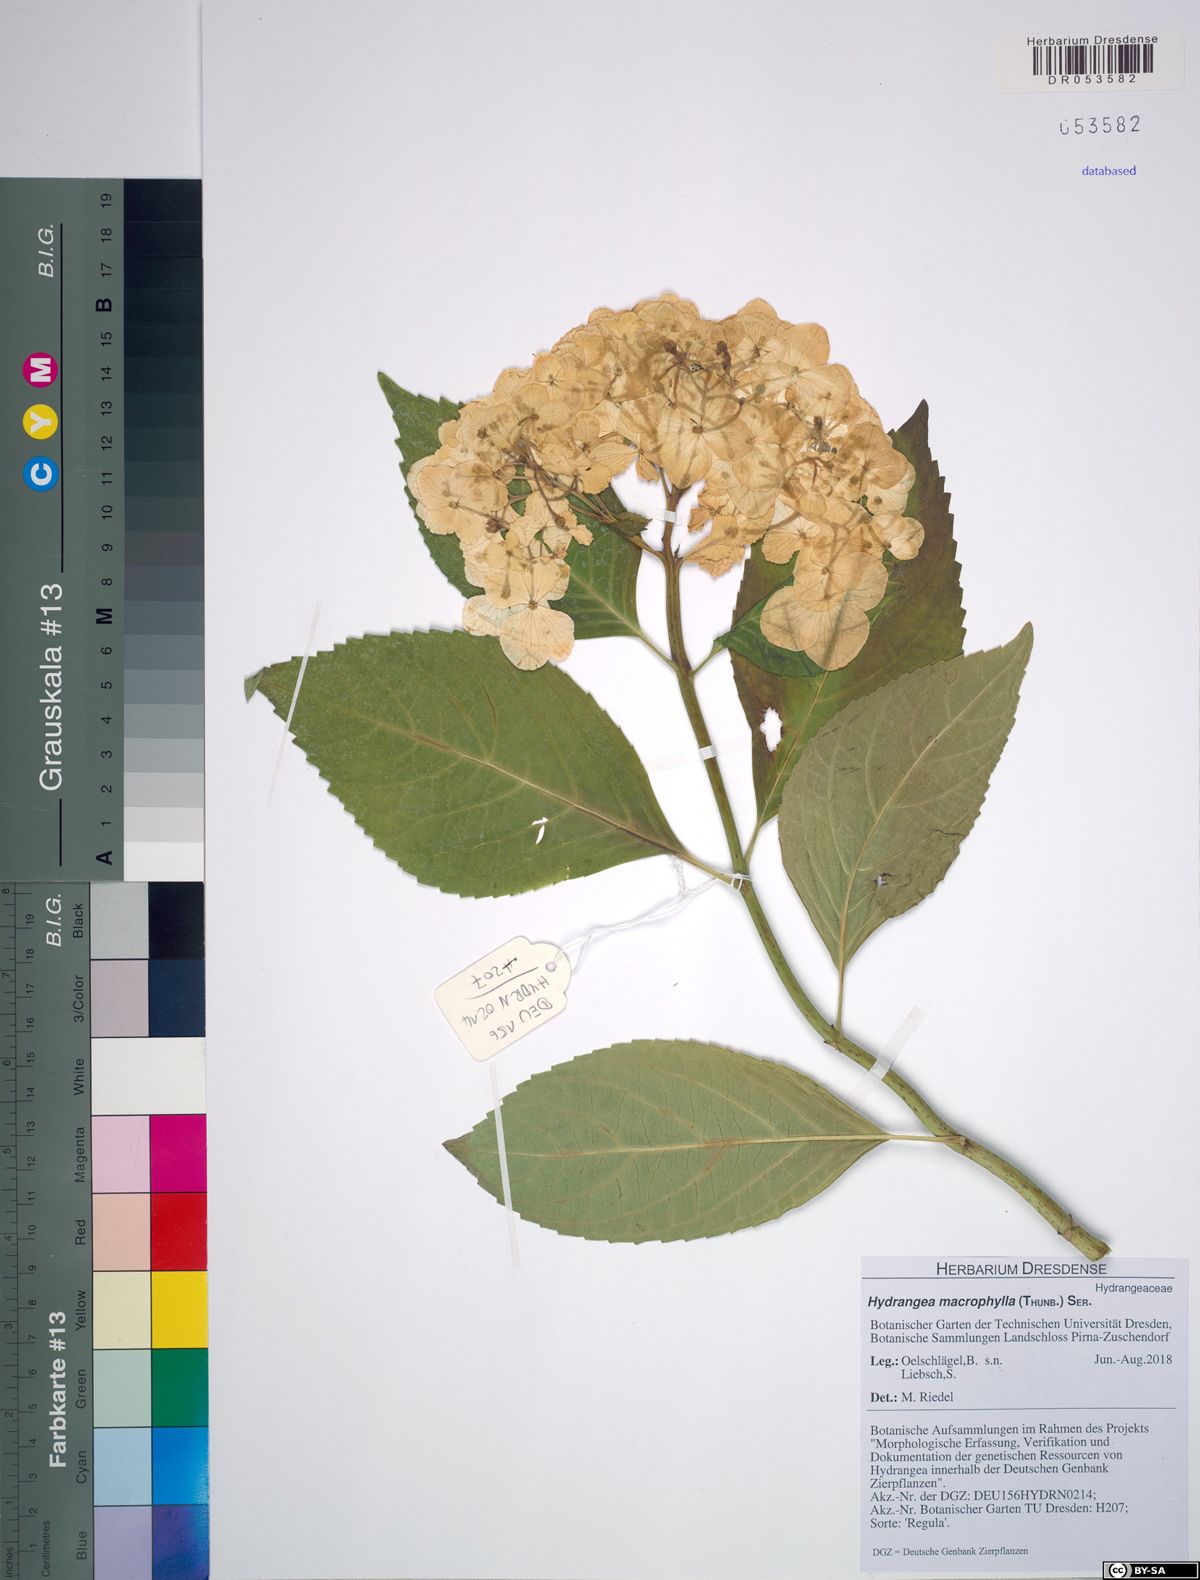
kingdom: Plantae
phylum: Tracheophyta
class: Magnoliopsida
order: Cornales
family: Hydrangeaceae
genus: Hydrangea
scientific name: Hydrangea macrophylla
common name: Hydrangea
